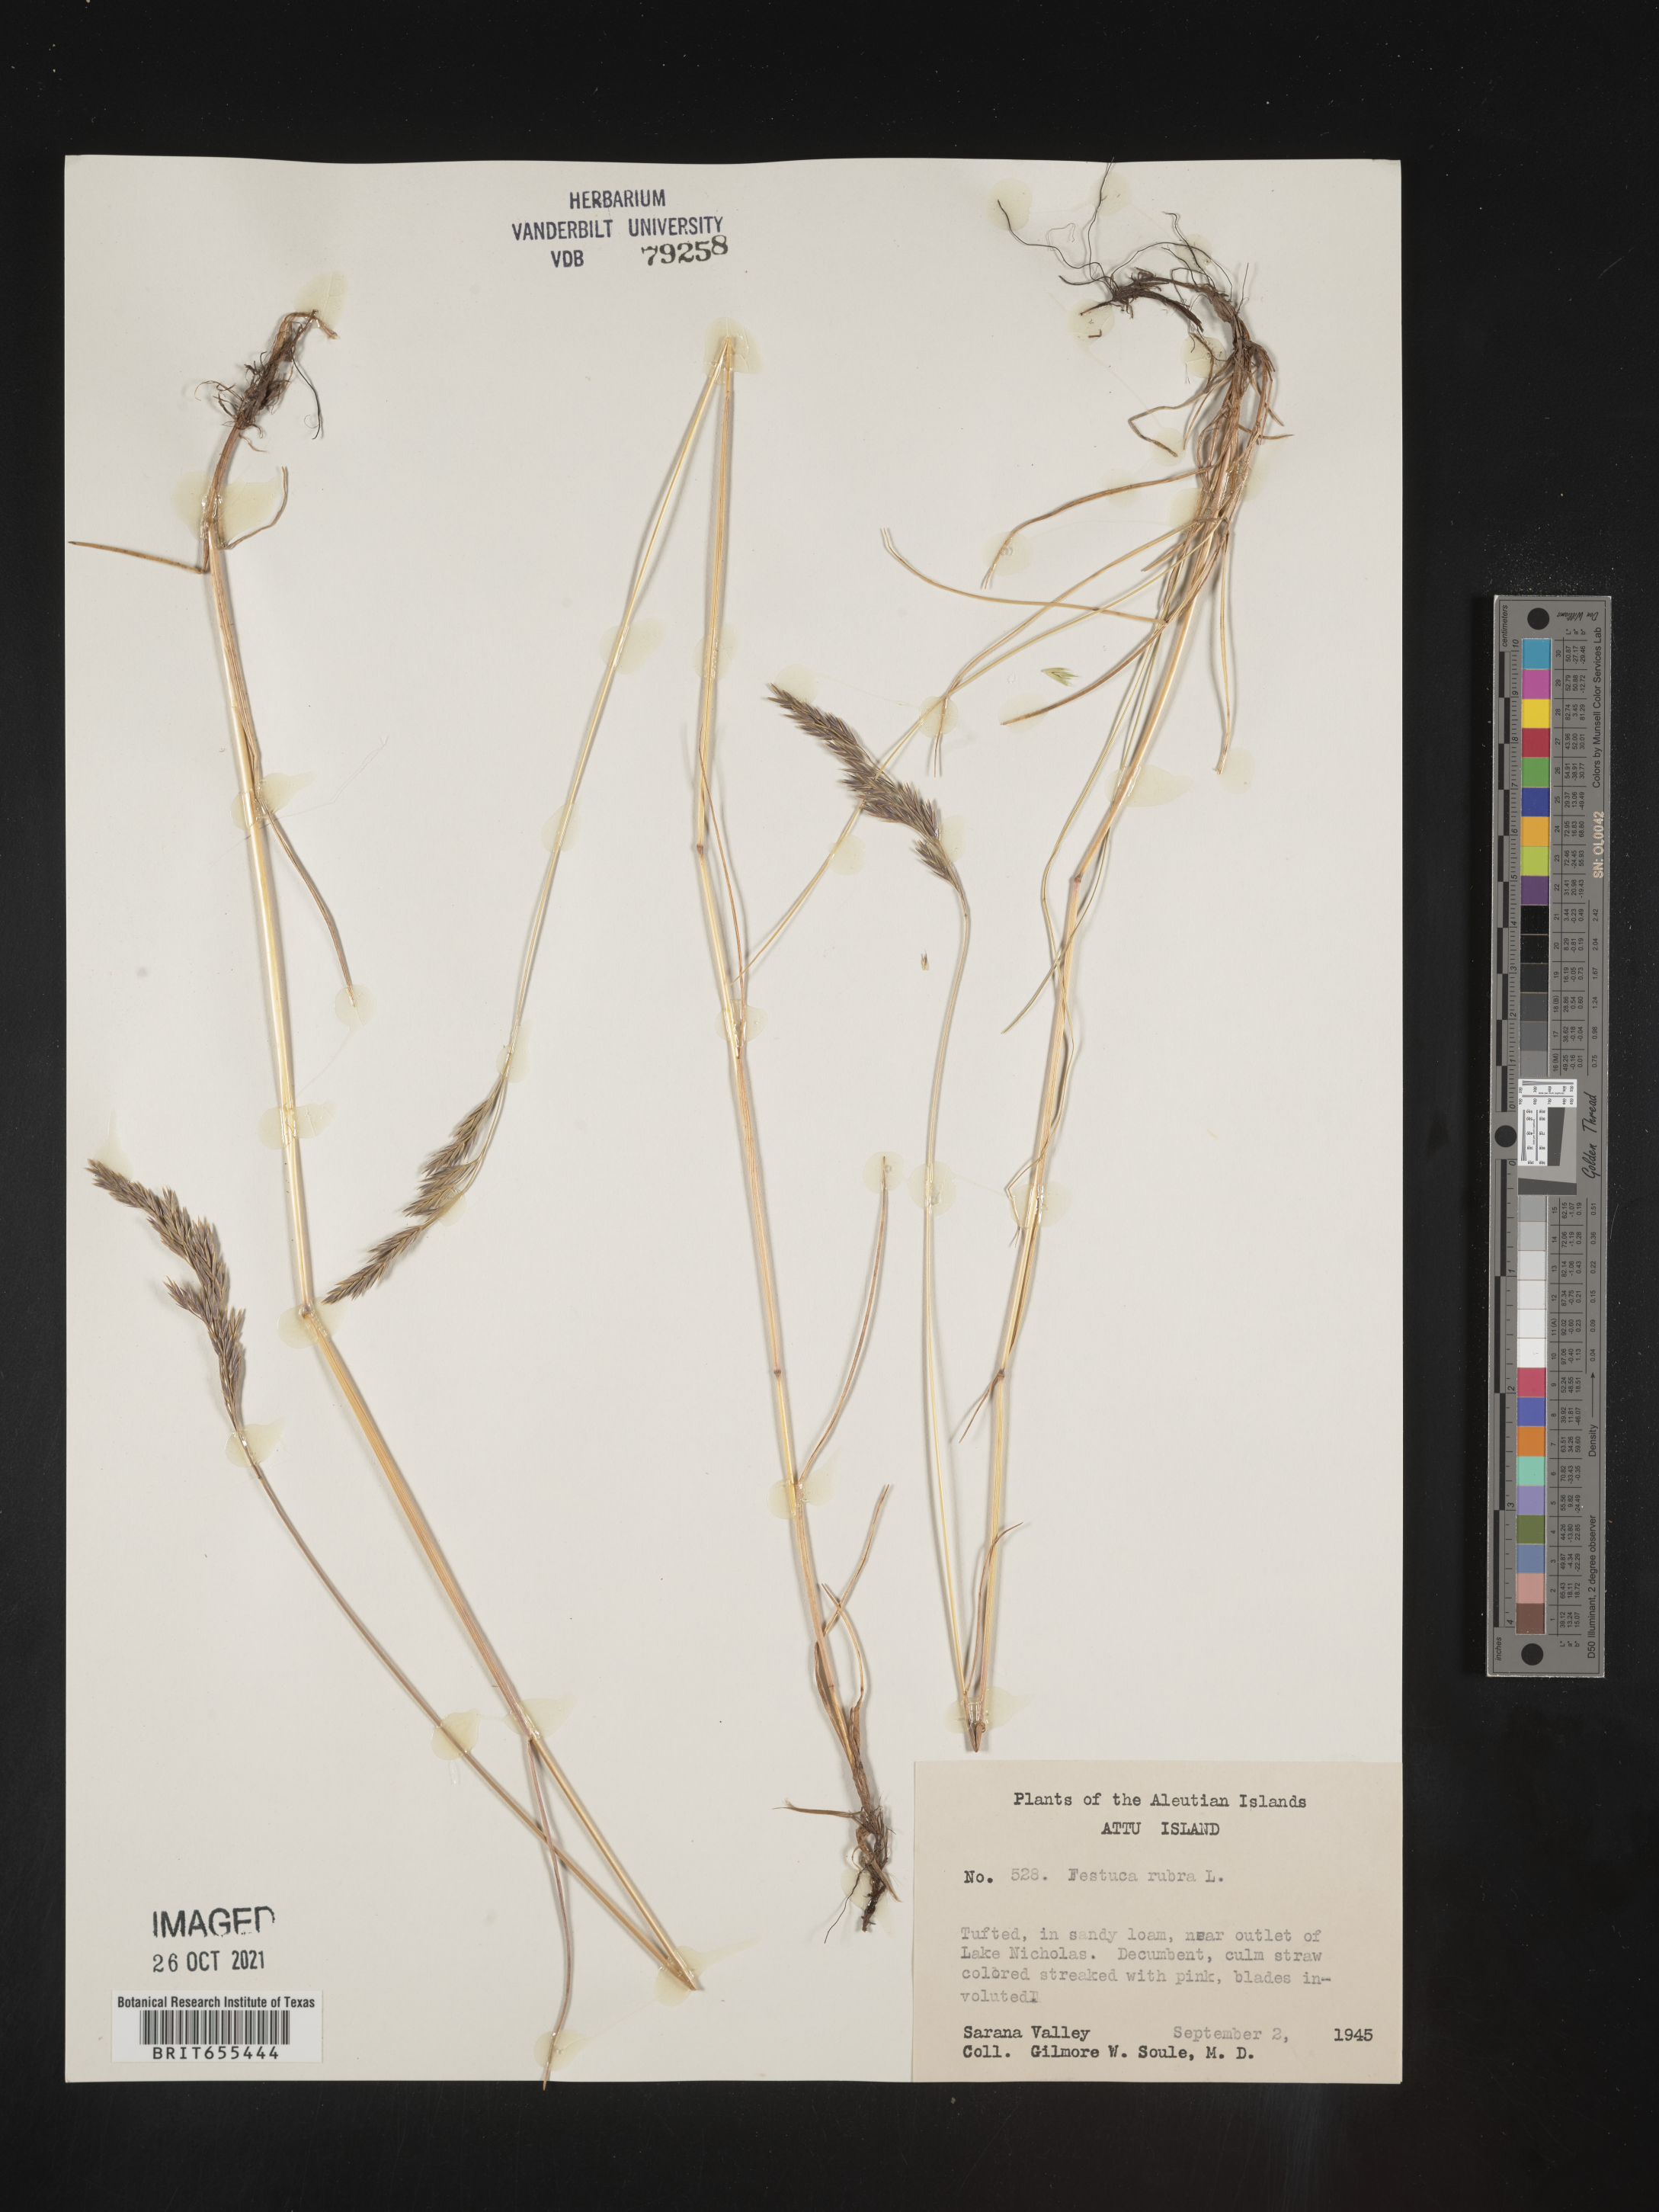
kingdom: Plantae
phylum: Tracheophyta
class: Liliopsida
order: Poales
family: Poaceae
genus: Festuca
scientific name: Festuca
